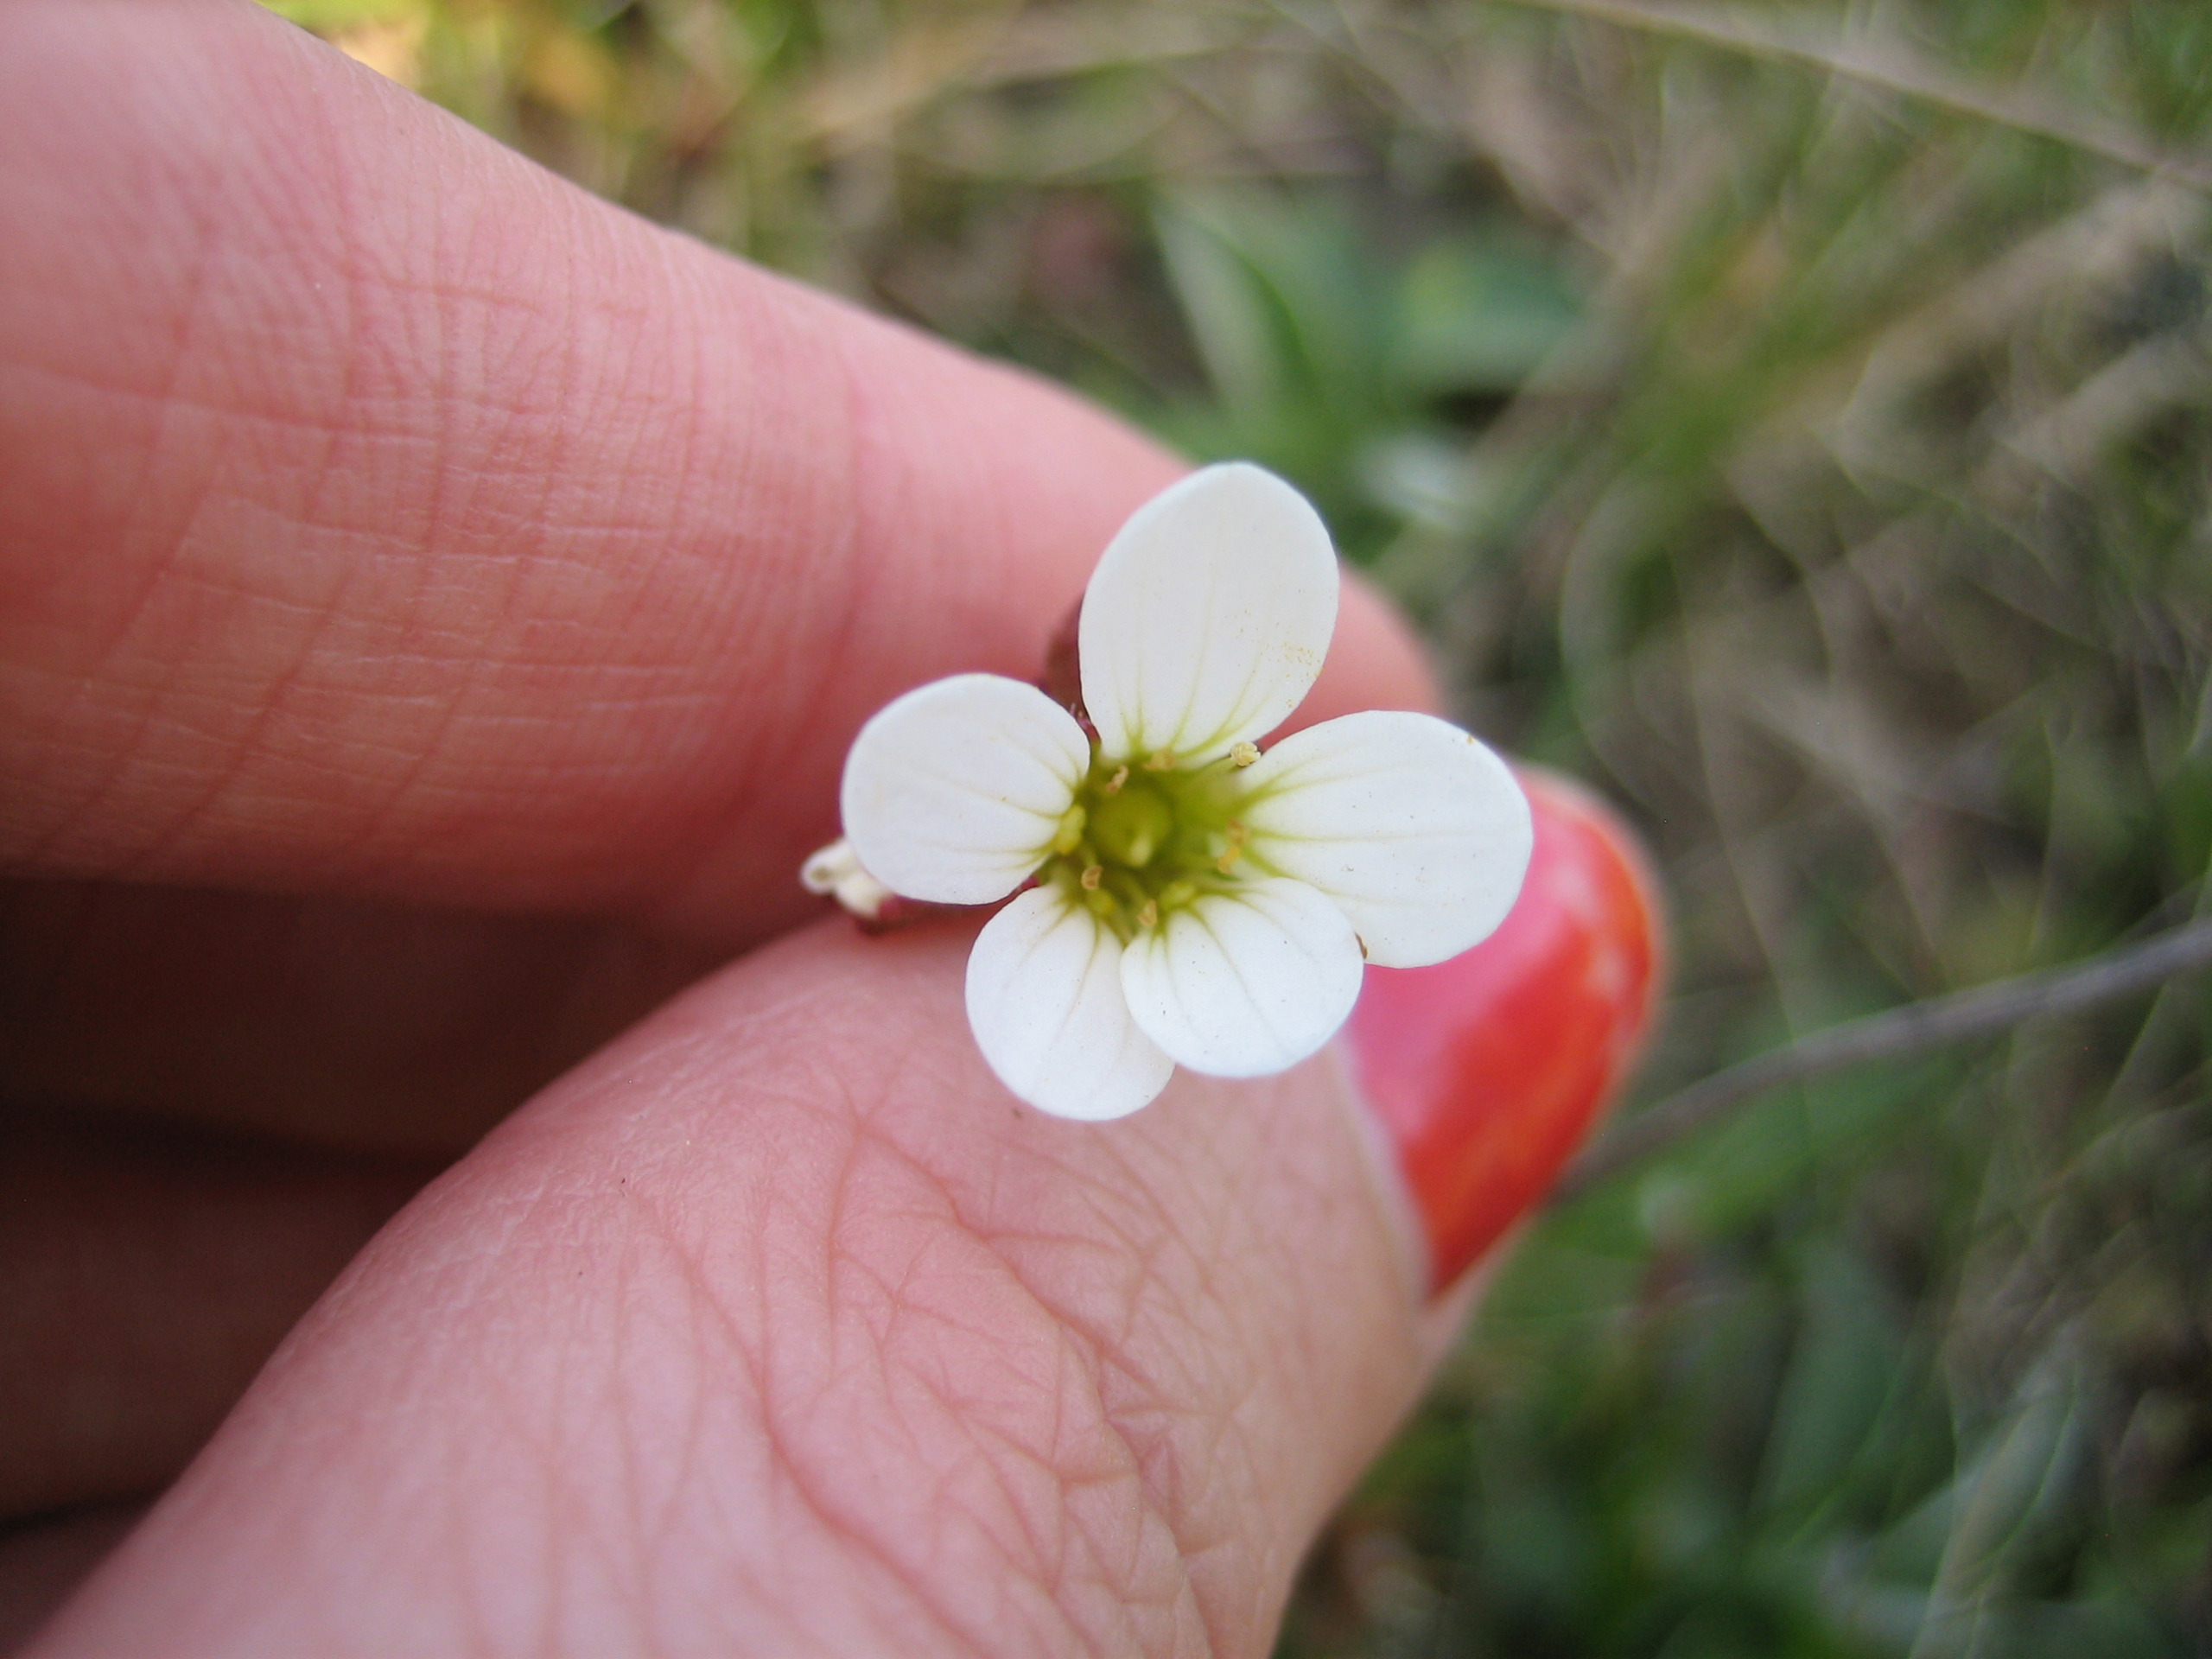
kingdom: Plantae
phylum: Tracheophyta
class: Magnoliopsida
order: Saxifragales
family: Saxifragaceae
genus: Saxifraga
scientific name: Saxifraga granulata
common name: Kornet stenbræk
